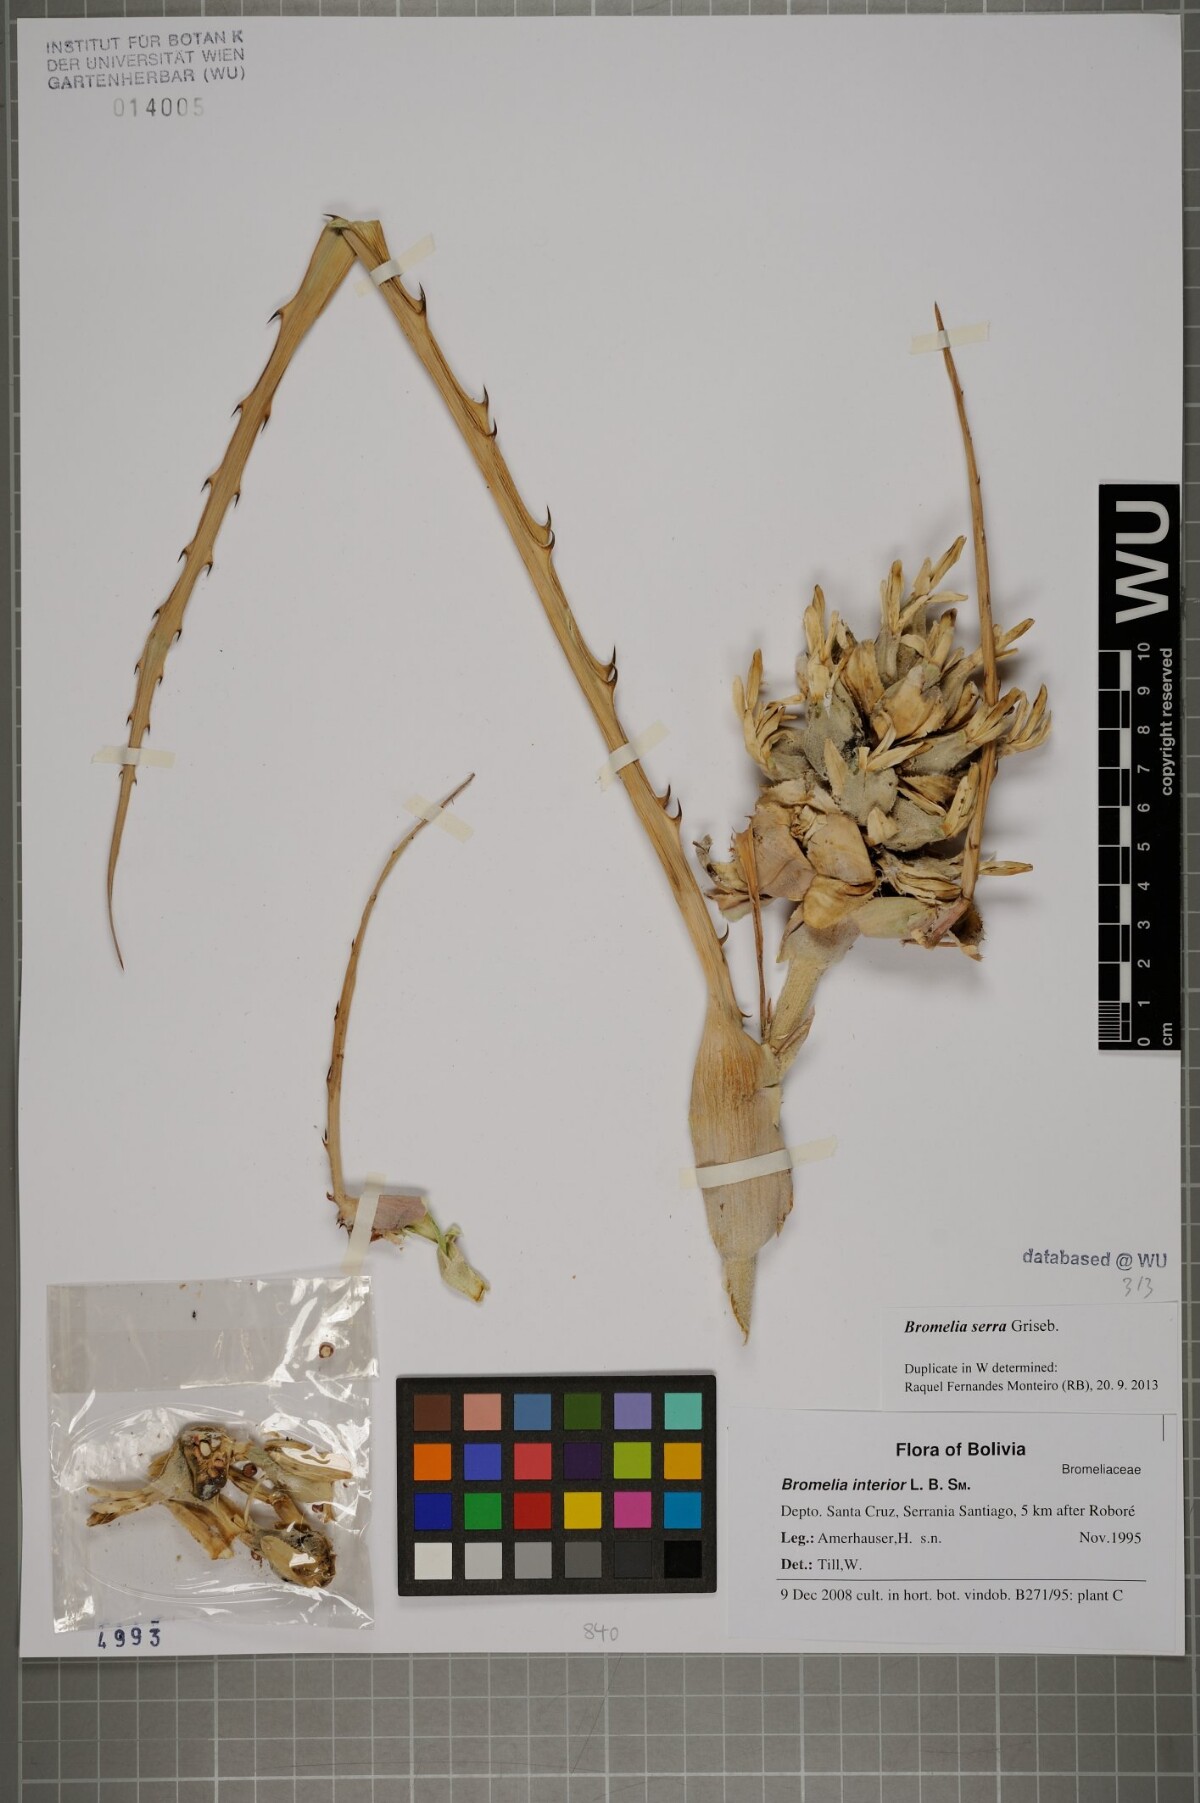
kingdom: Plantae
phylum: Tracheophyta
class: Liliopsida
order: Poales
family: Bromeliaceae
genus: Bromelia
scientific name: Bromelia serra
